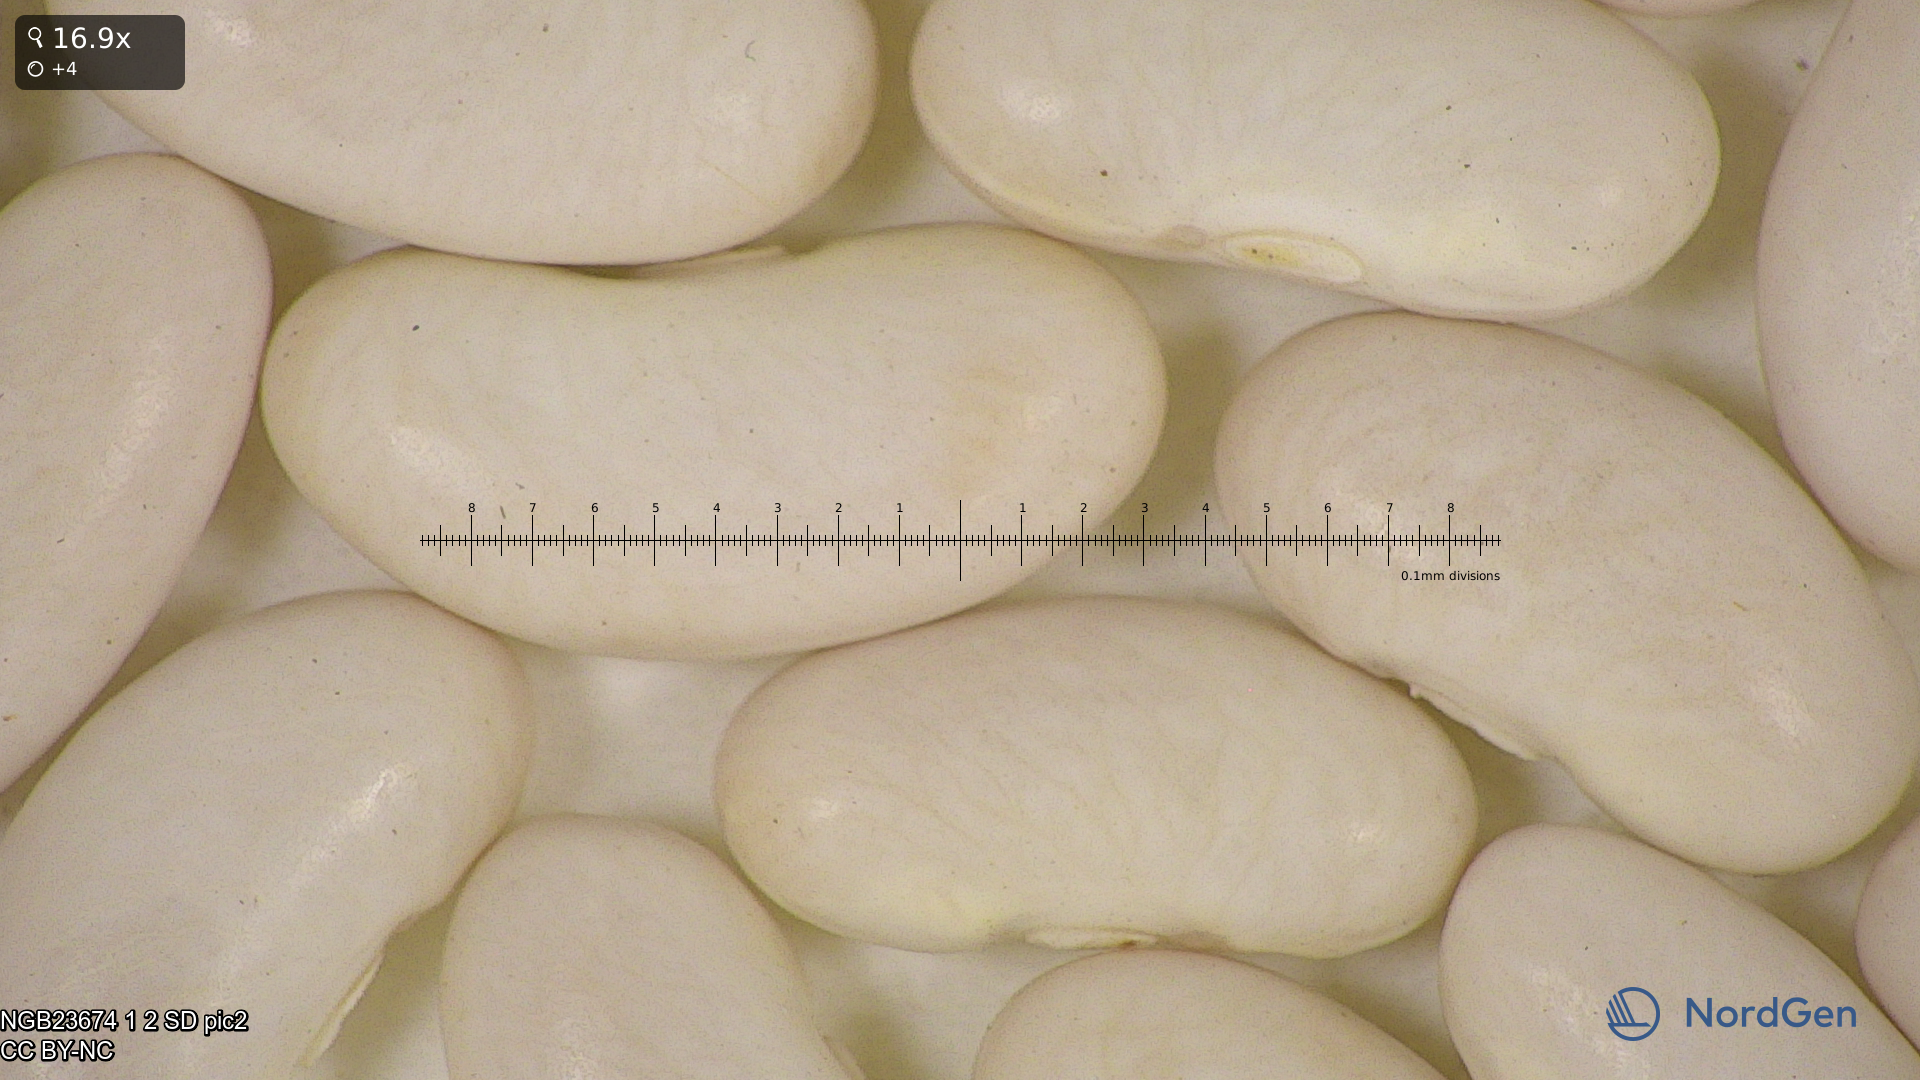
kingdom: Plantae
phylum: Tracheophyta
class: Magnoliopsida
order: Fabales
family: Fabaceae
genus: Phaseolus
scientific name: Phaseolus vulgaris
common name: Bean
